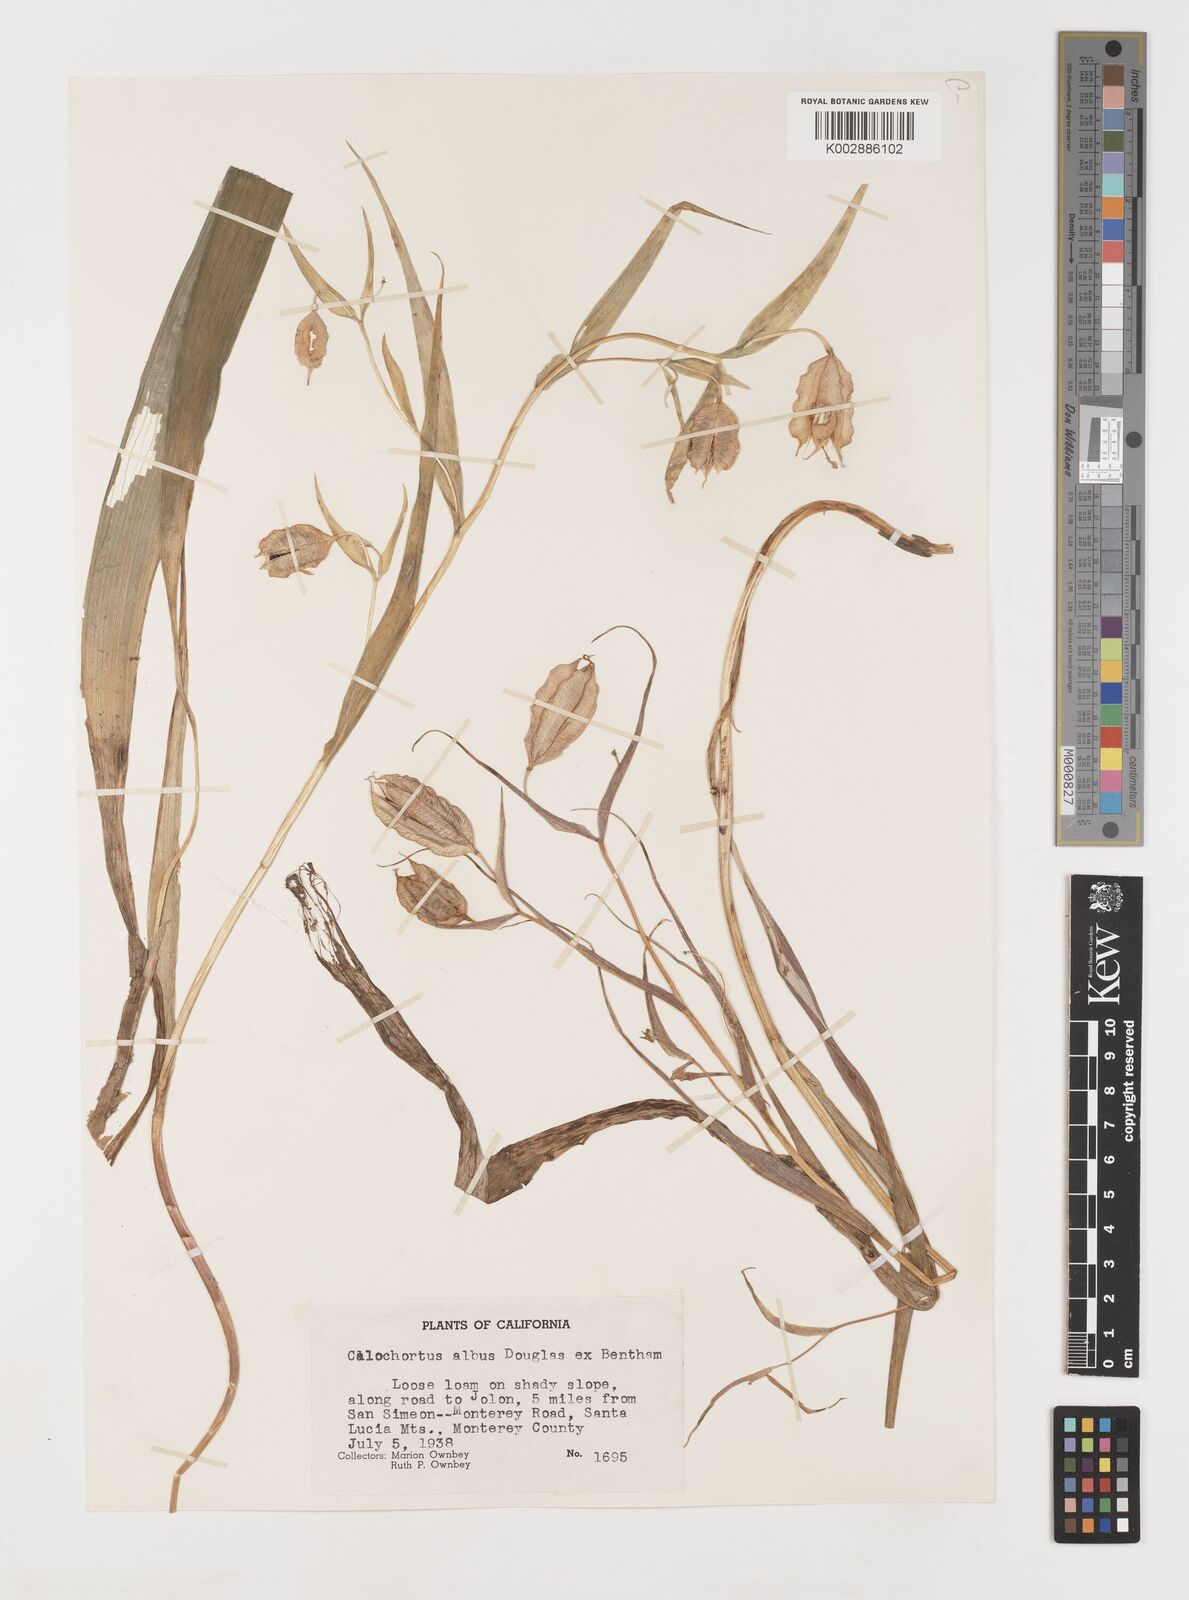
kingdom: Plantae
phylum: Tracheophyta
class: Liliopsida
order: Liliales
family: Liliaceae
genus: Calochortus
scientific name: Calochortus albus
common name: Fairy-lantern
